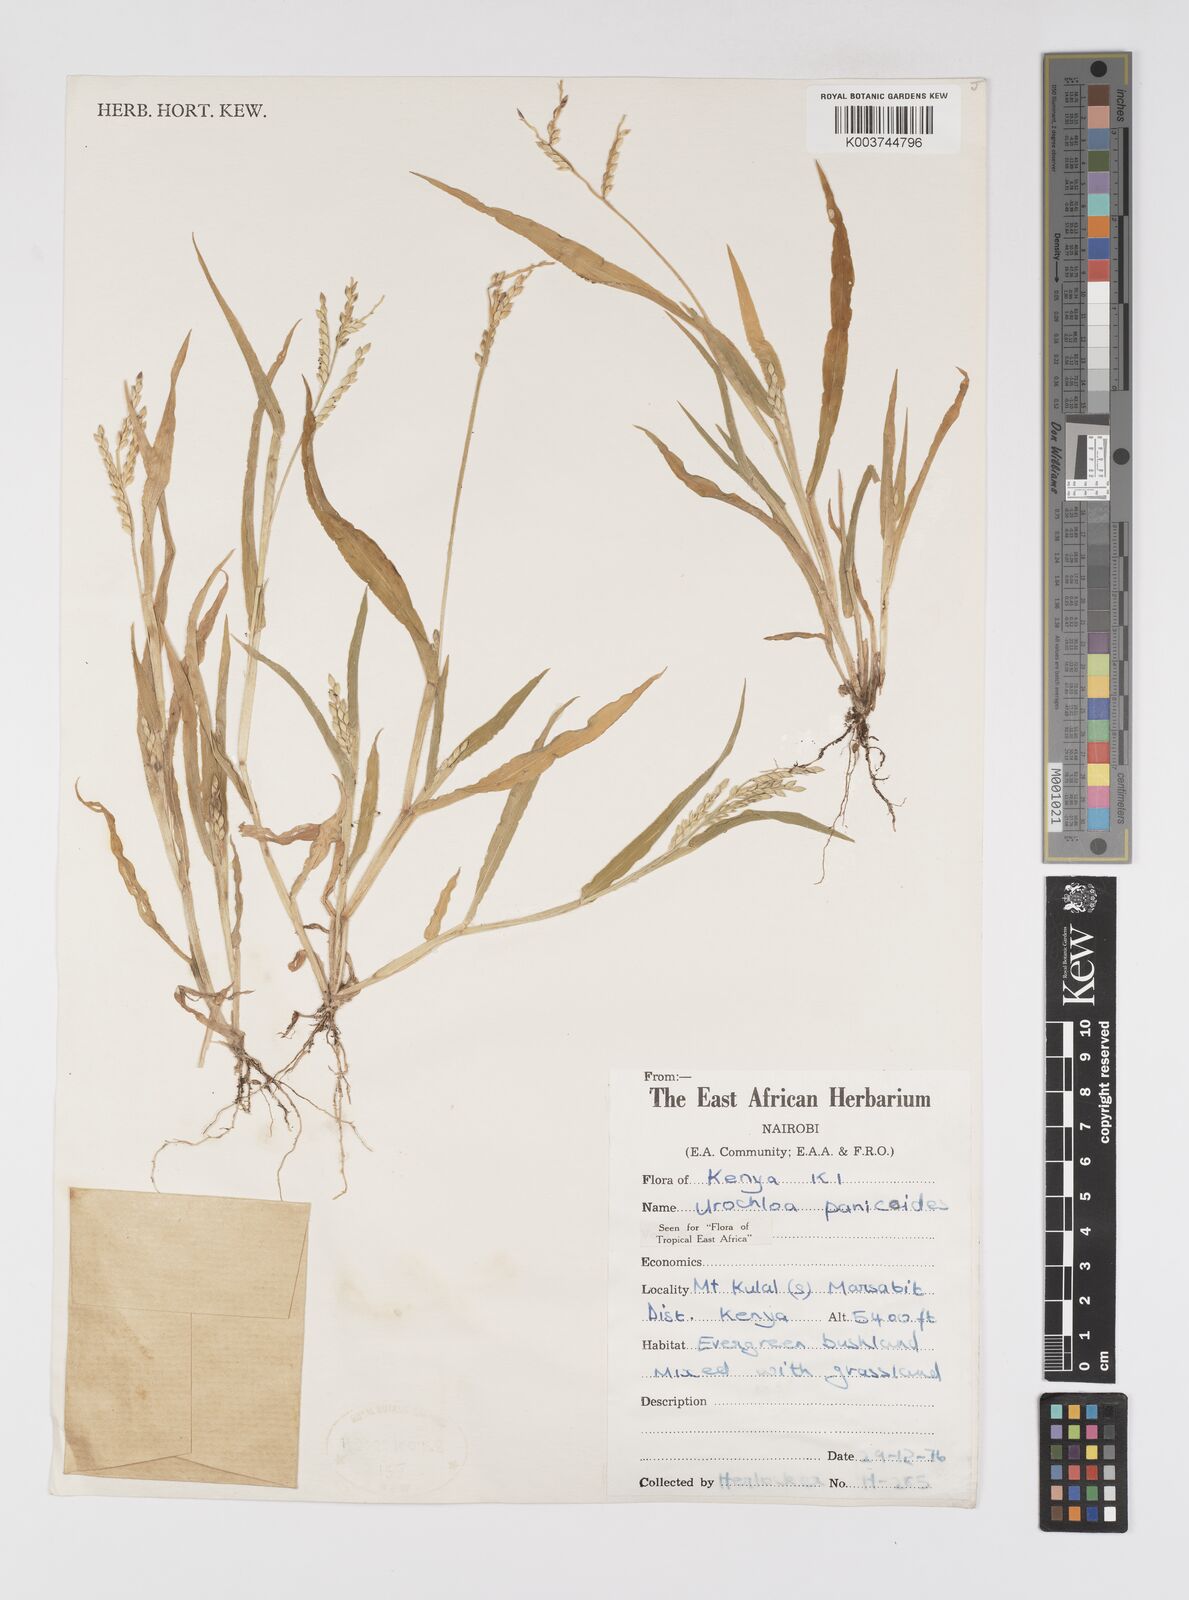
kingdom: Plantae
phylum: Tracheophyta
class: Liliopsida
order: Poales
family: Poaceae
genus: Urochloa
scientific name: Urochloa panicoides
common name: Sharp-flowered signal-grass
